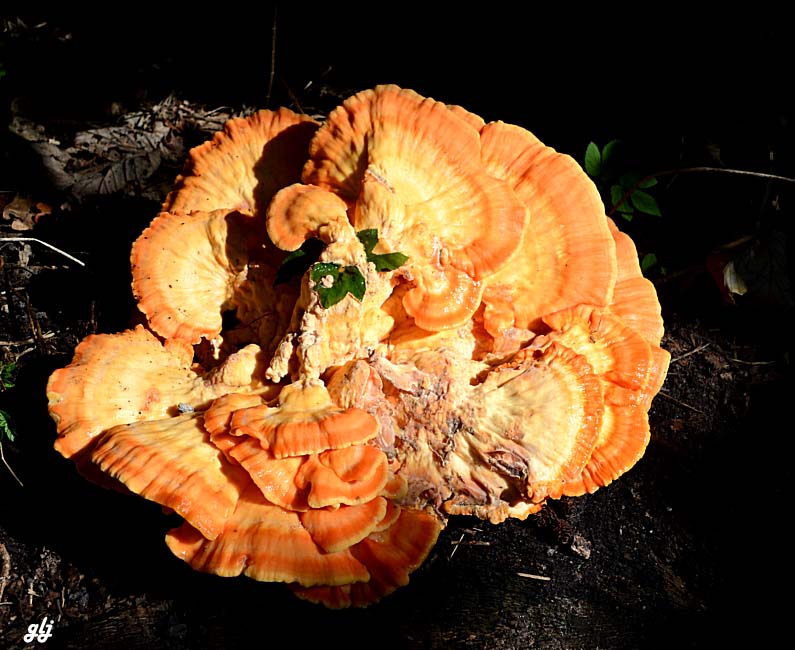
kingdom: Fungi
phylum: Basidiomycota
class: Agaricomycetes
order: Polyporales
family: Laetiporaceae
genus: Laetiporus
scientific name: Laetiporus sulphureus
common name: svovlporesvamp
